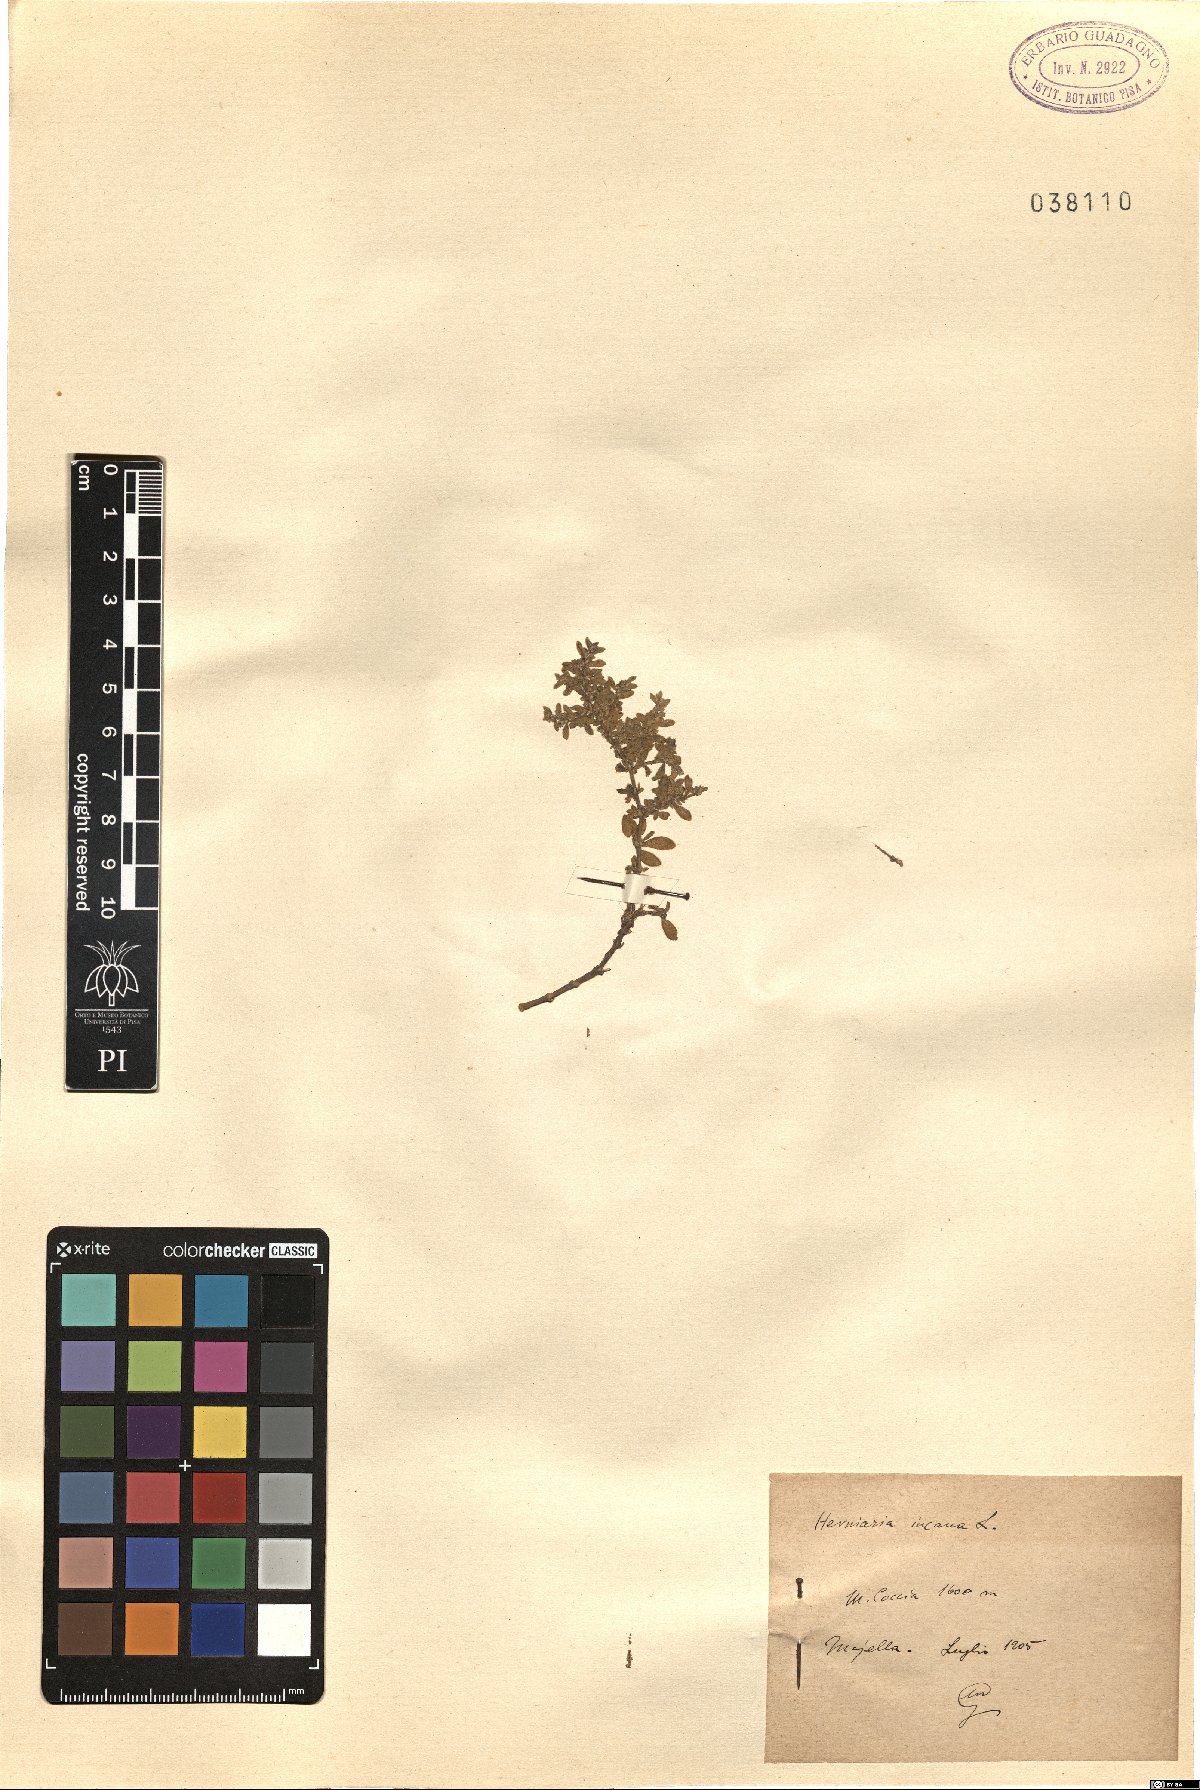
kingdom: Plantae
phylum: Tracheophyta
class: Magnoliopsida
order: Caryophyllales
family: Caryophyllaceae
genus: Herniaria
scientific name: Herniaria incana
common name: Gray rupturewort
